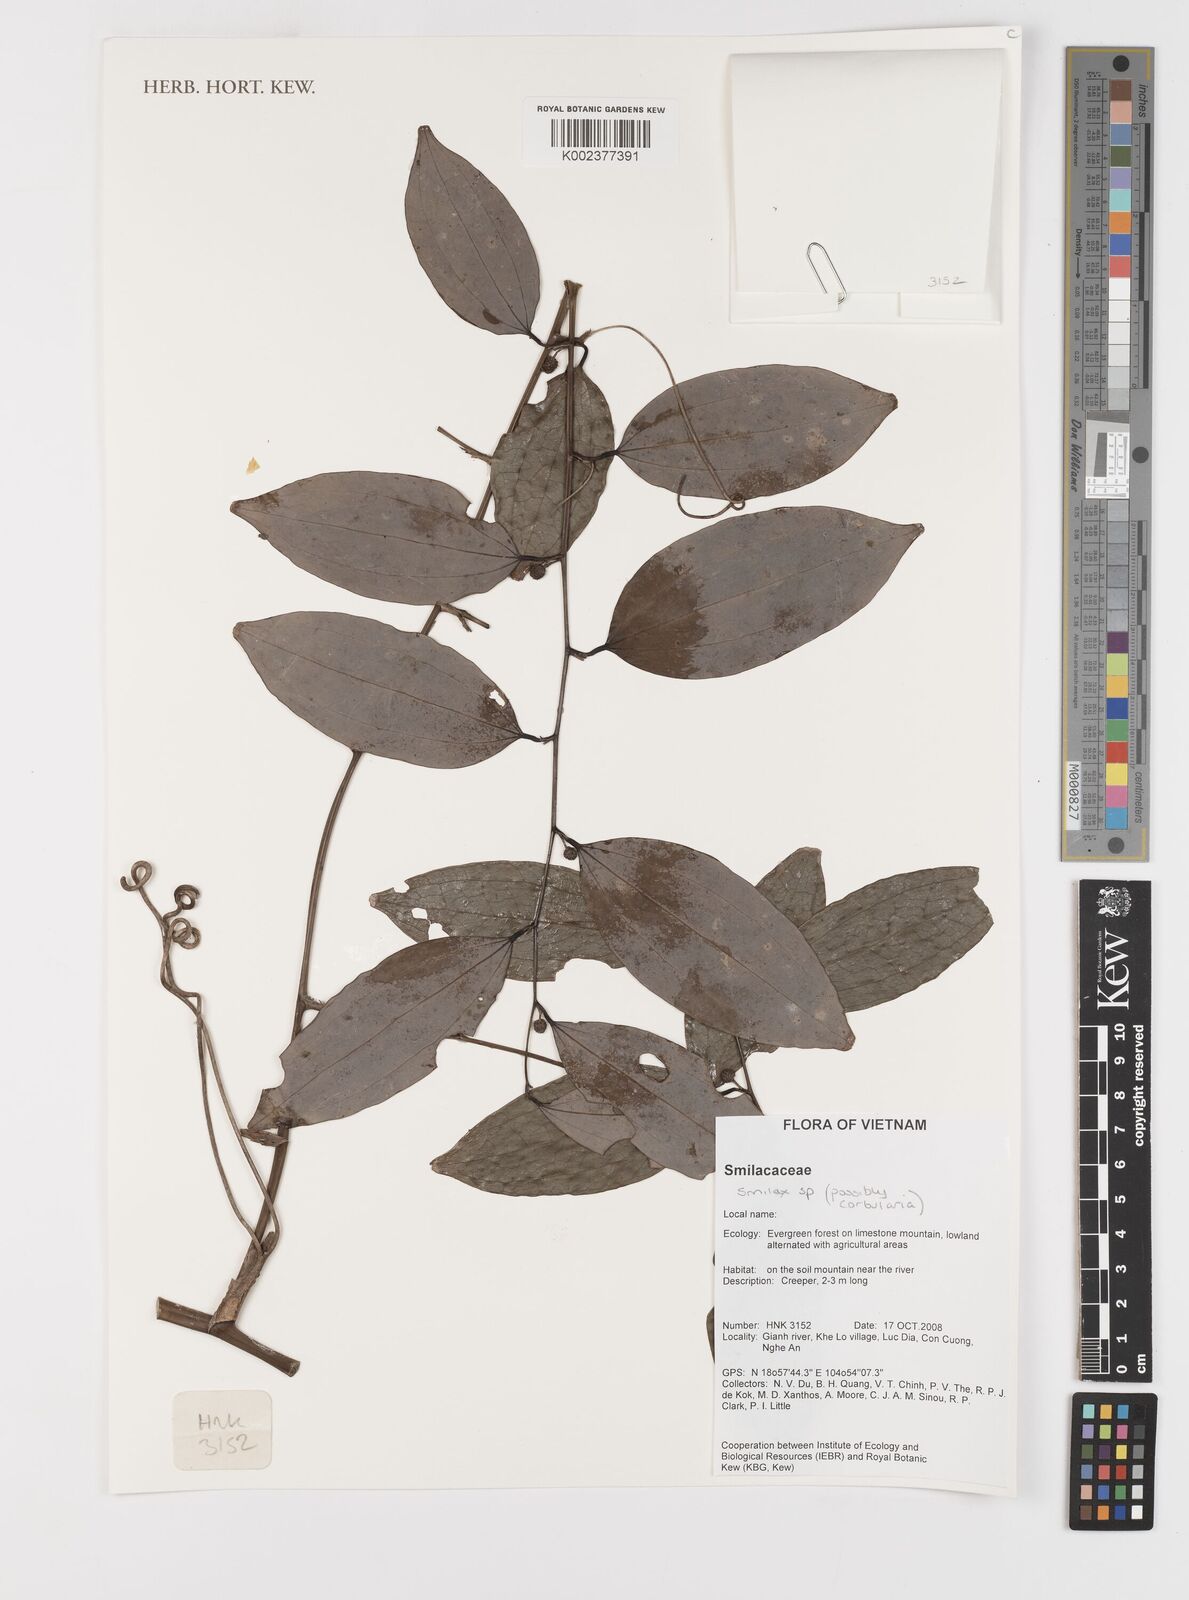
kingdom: Plantae
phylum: Tracheophyta
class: Liliopsida
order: Liliales
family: Smilacaceae
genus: Smilax
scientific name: Smilax
